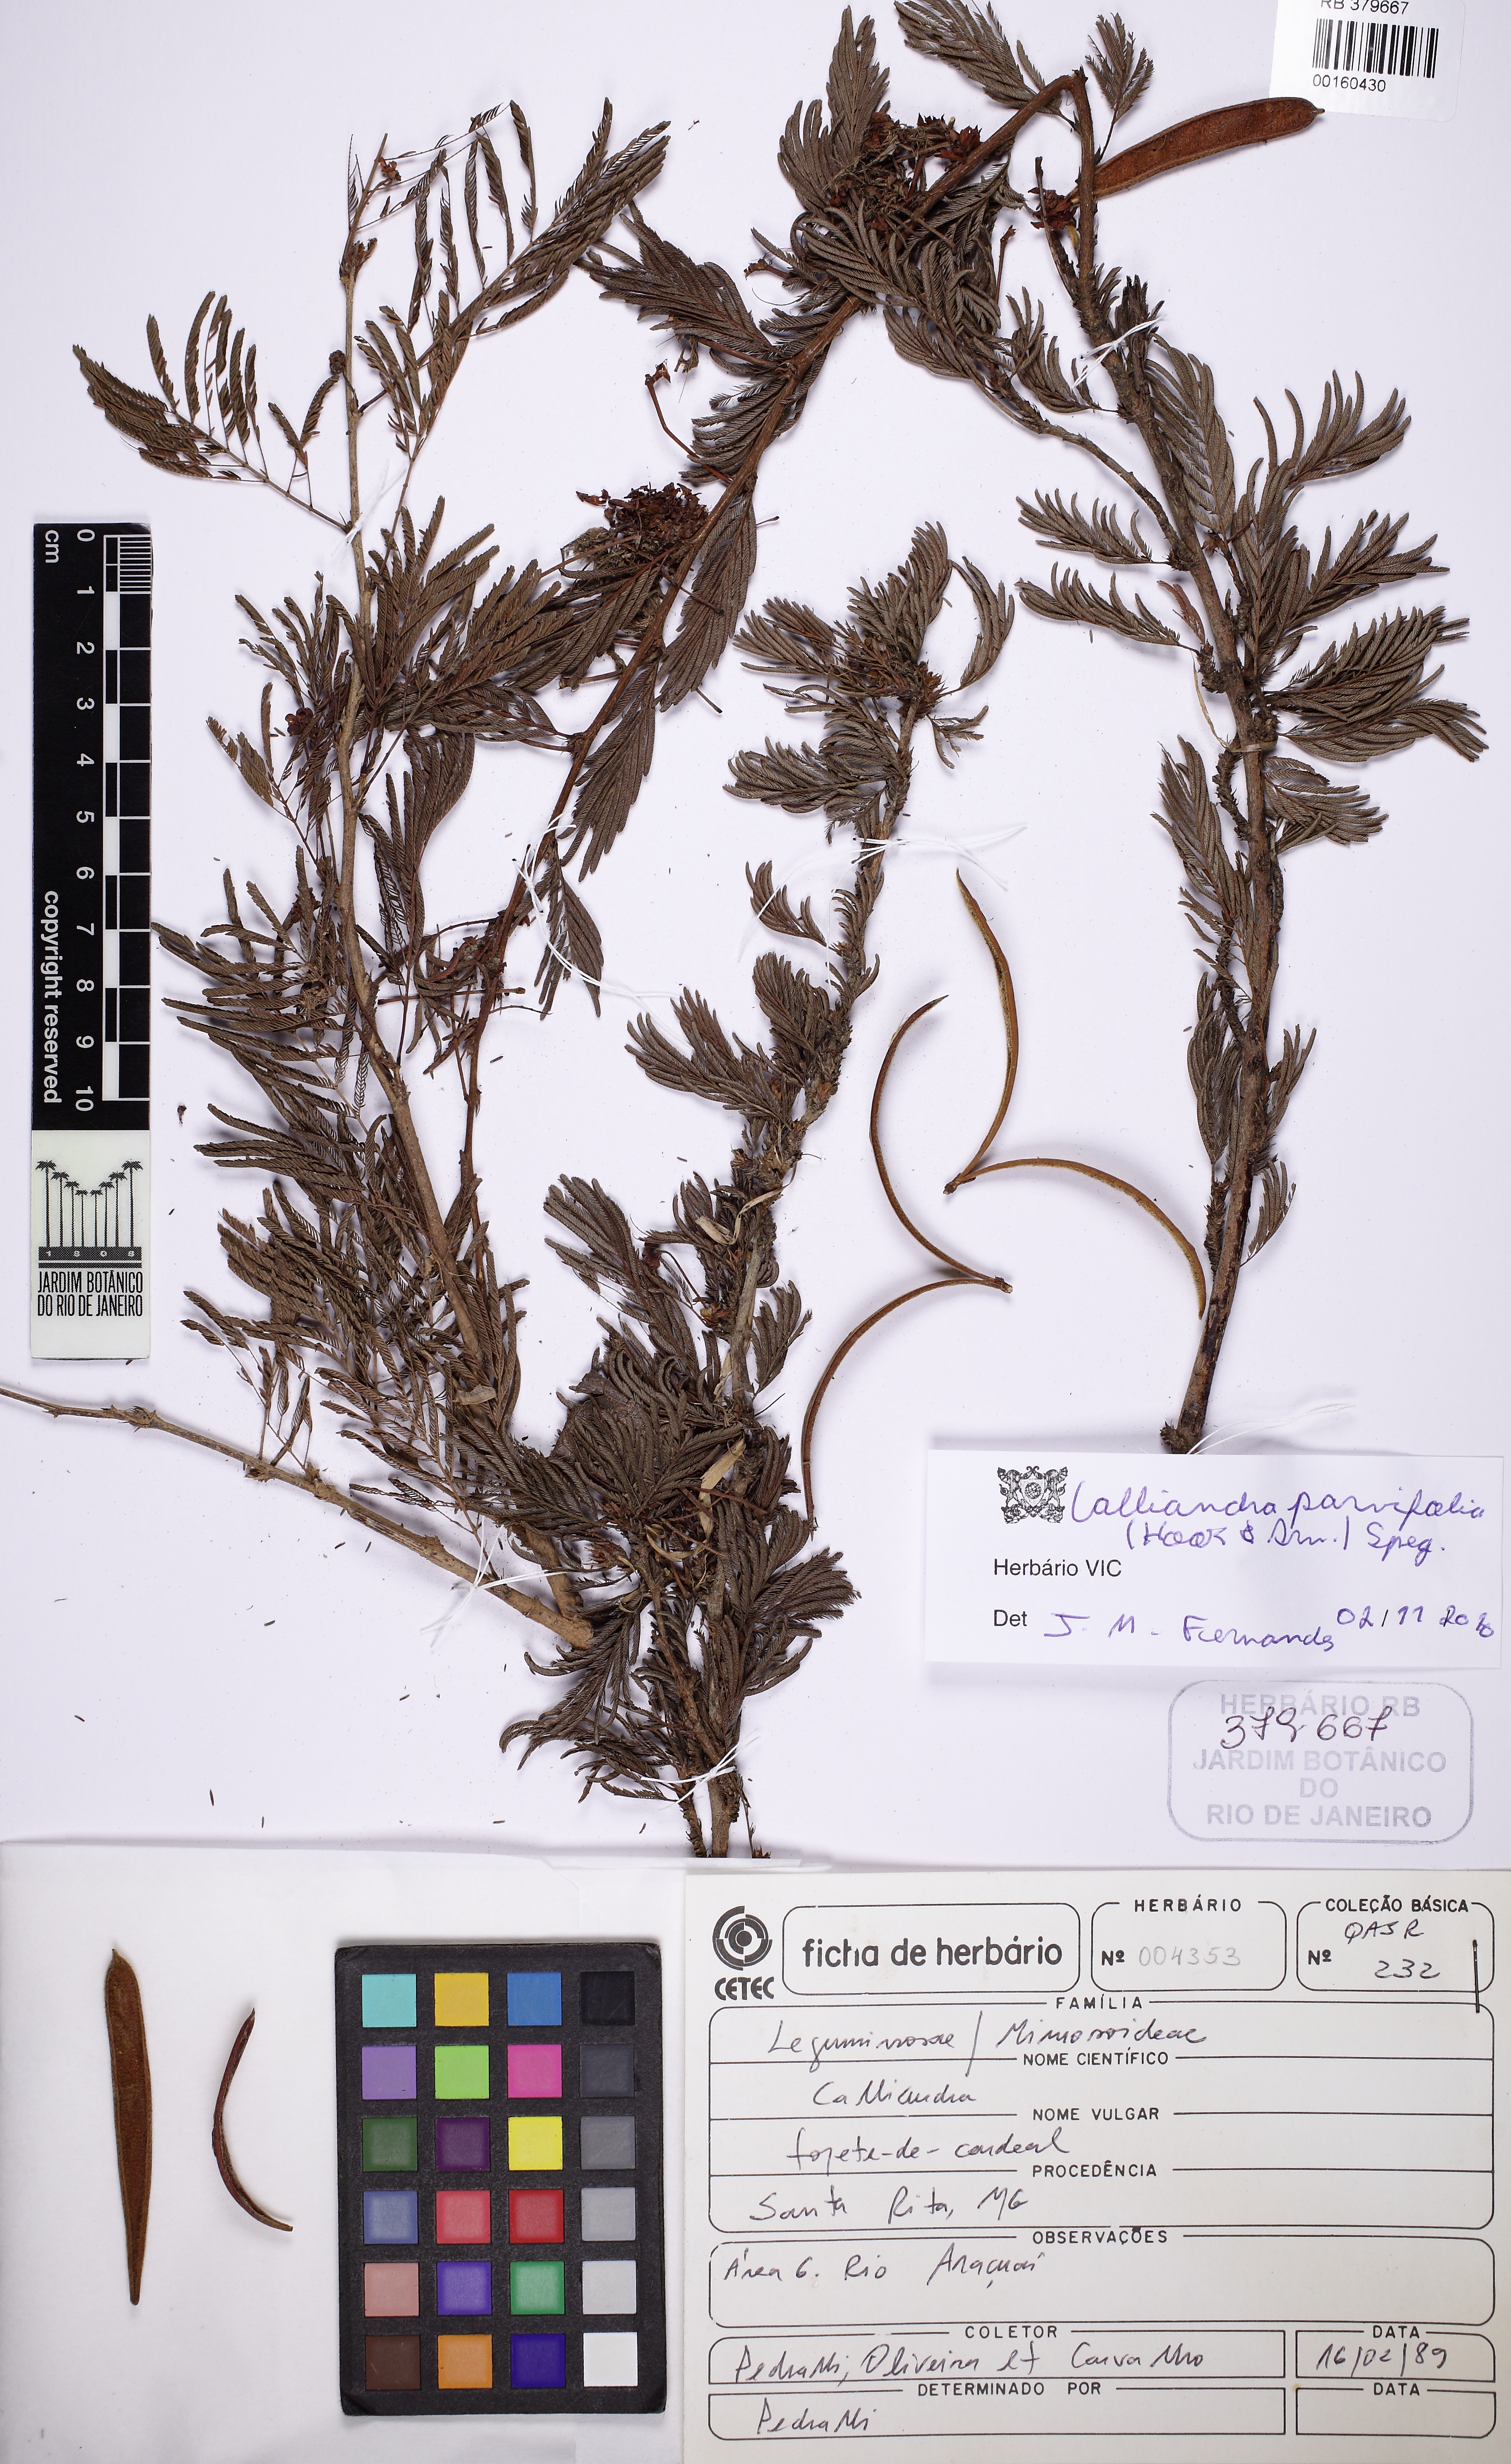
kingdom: Plantae
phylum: Tracheophyta
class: Magnoliopsida
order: Fabales
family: Fabaceae
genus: Calliandra
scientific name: Calliandra parvifolia
